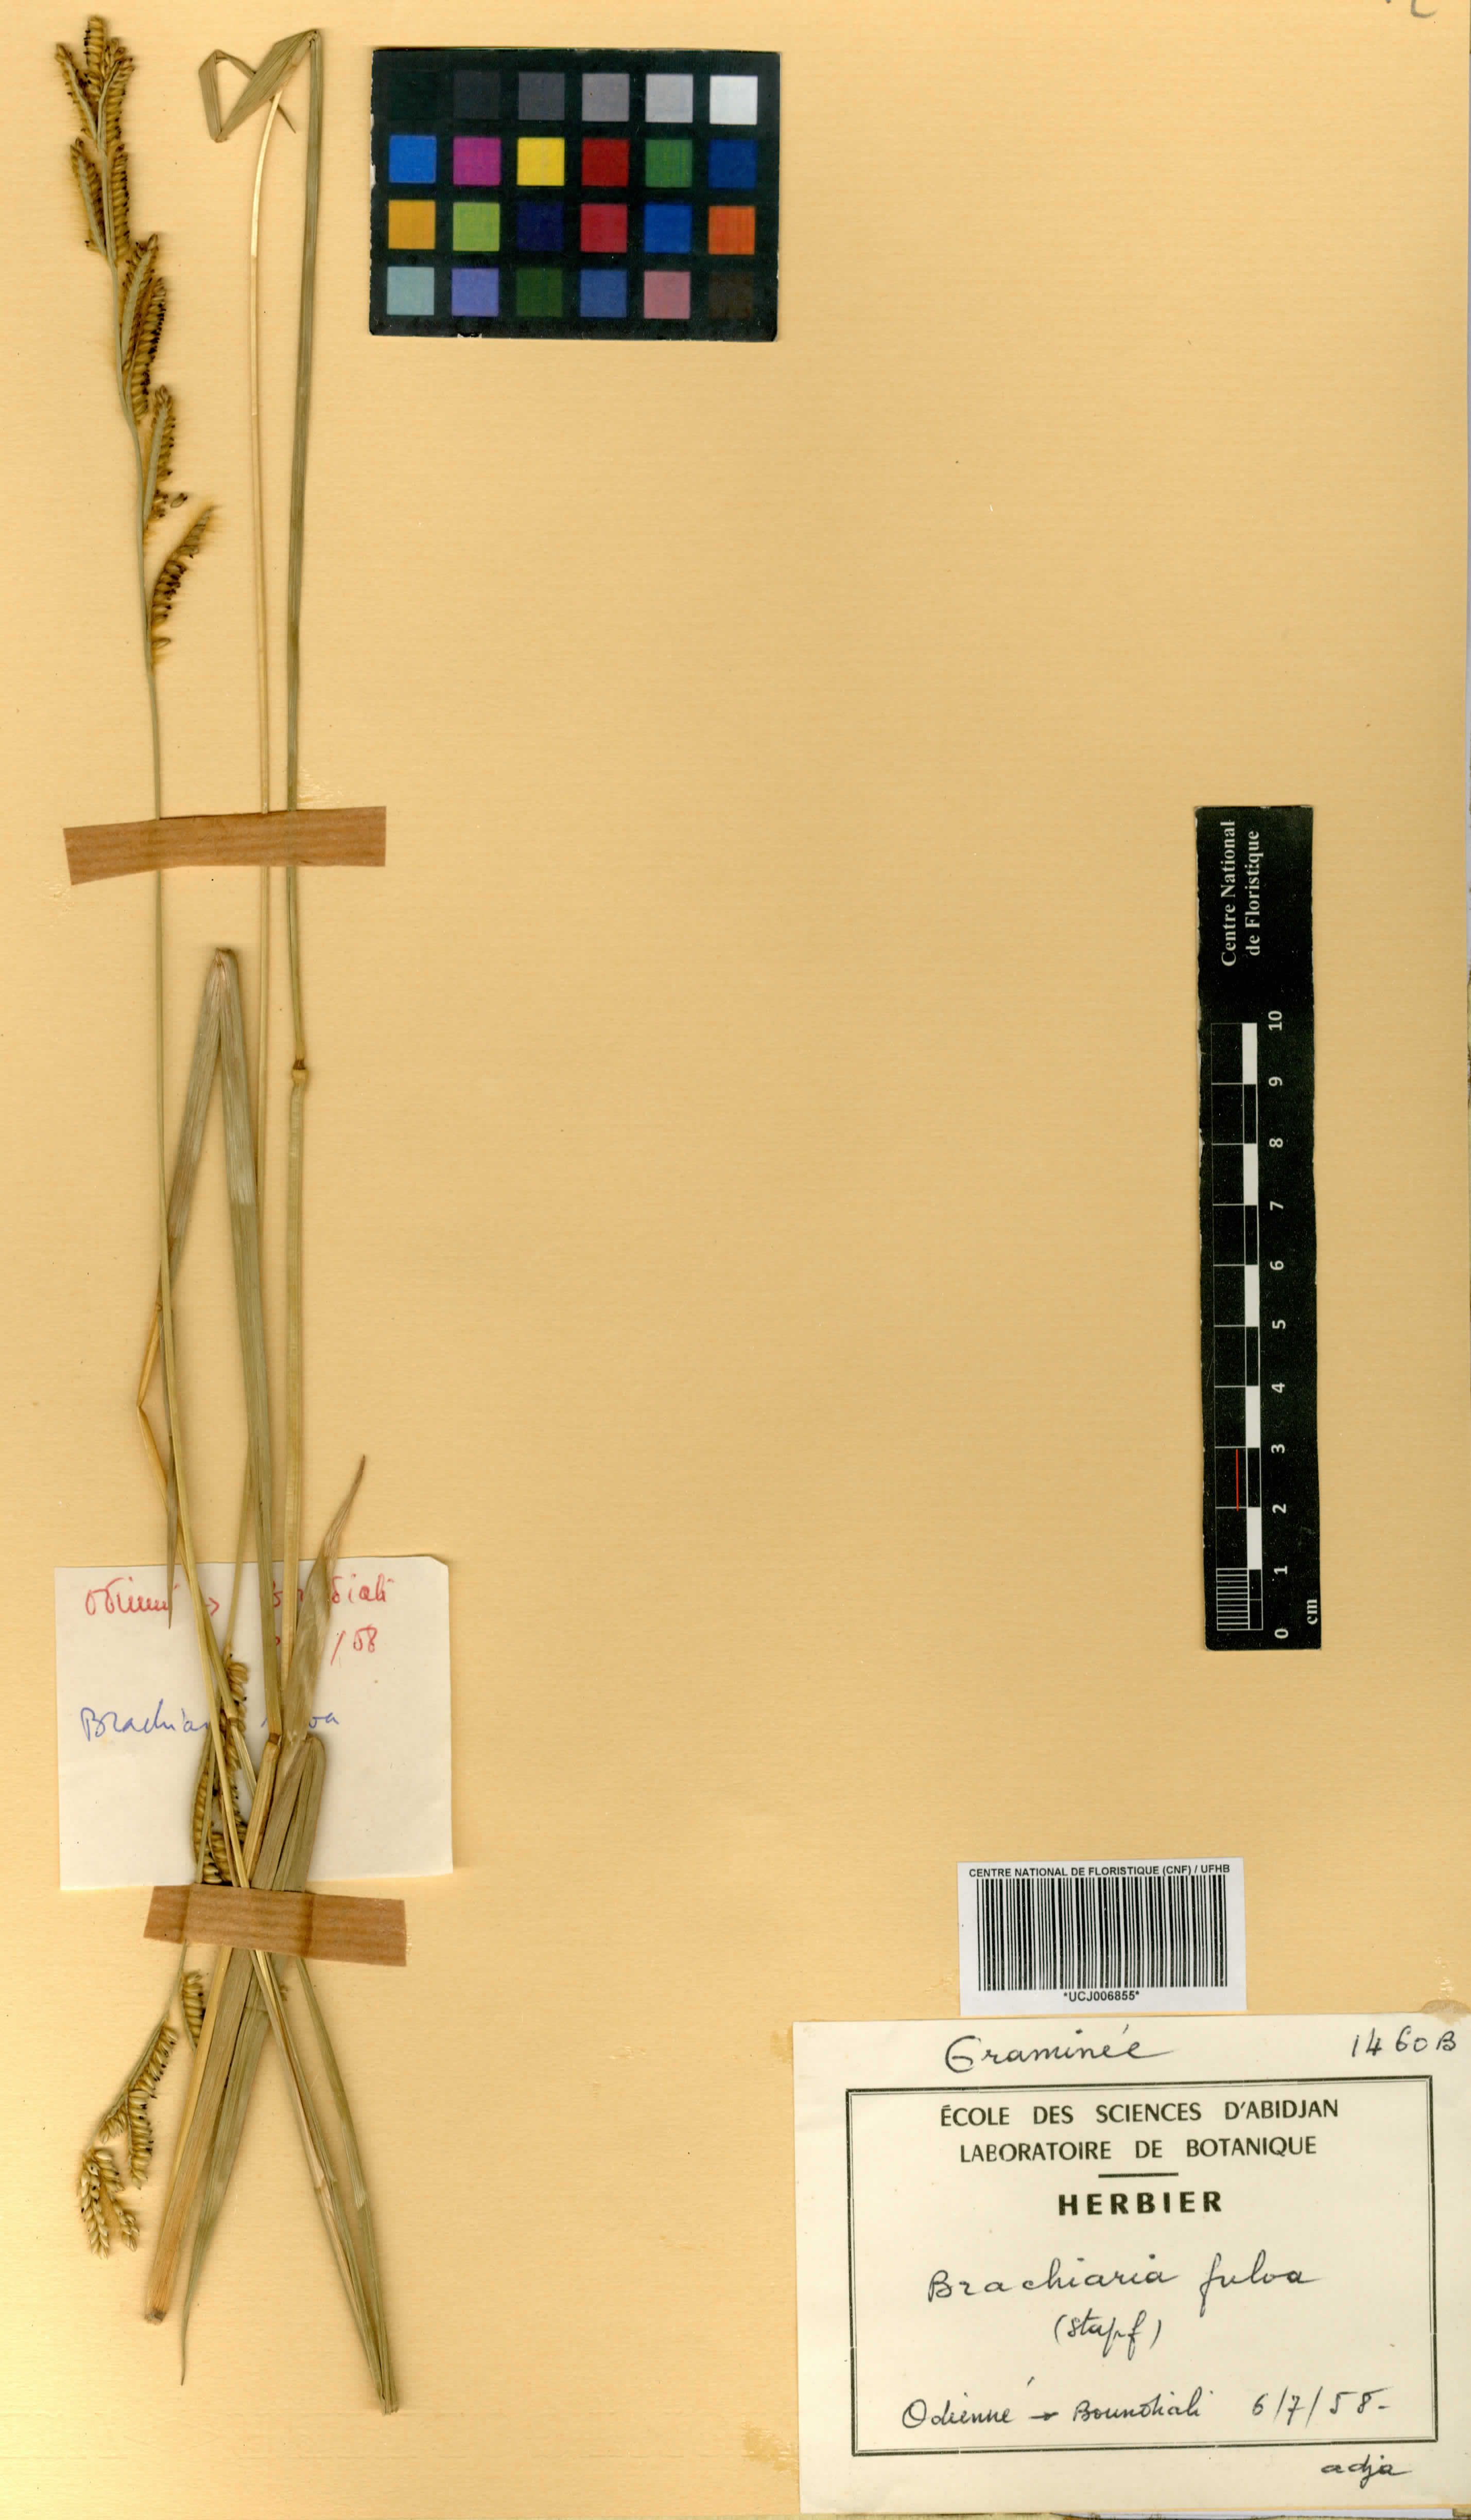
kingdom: Plantae
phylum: Tracheophyta
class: Liliopsida
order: Poales
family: Poaceae
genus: Urochloa
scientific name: Urochloa jubata
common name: Buffalograss
